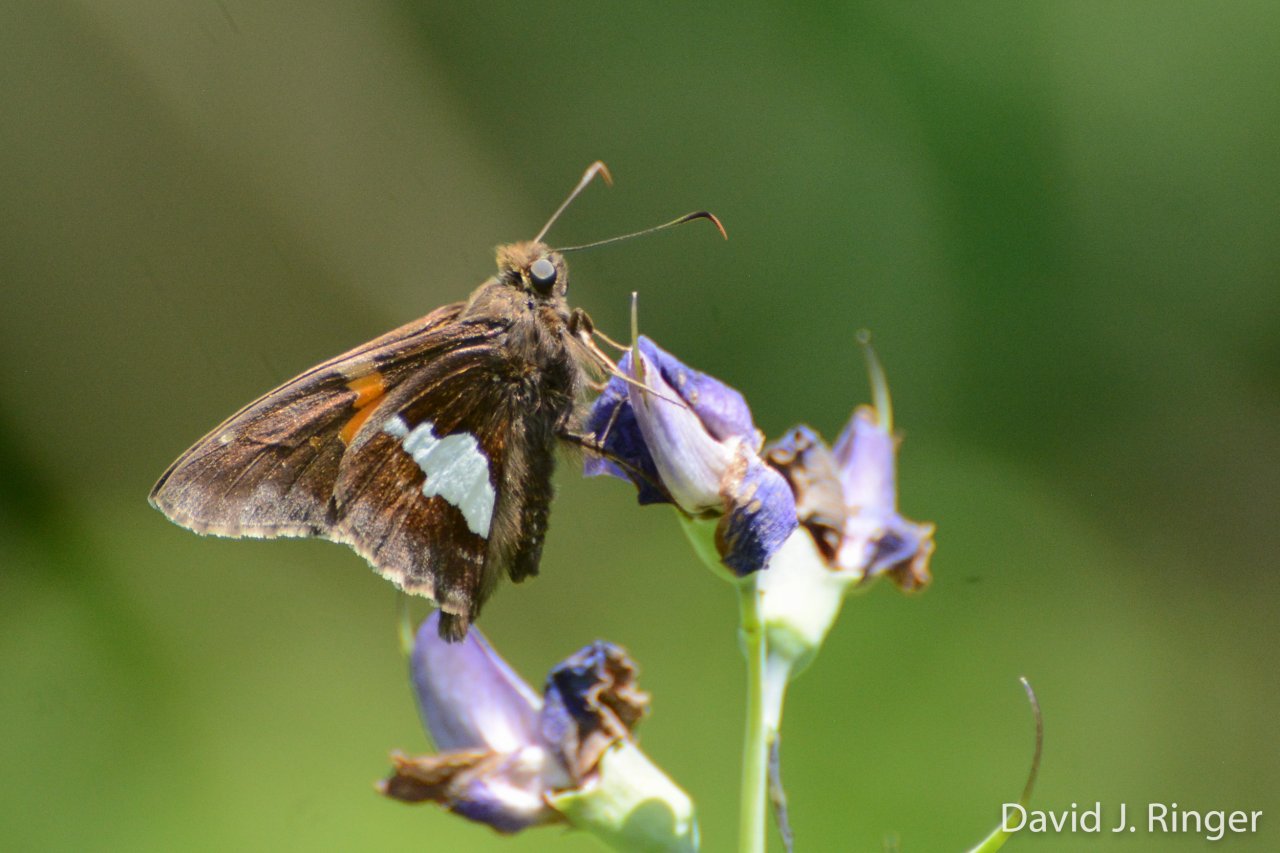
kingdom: Animalia
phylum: Arthropoda
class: Insecta
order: Lepidoptera
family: Hesperiidae
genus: Epargyreus
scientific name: Epargyreus clarus
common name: Silver-spotted Skipper
